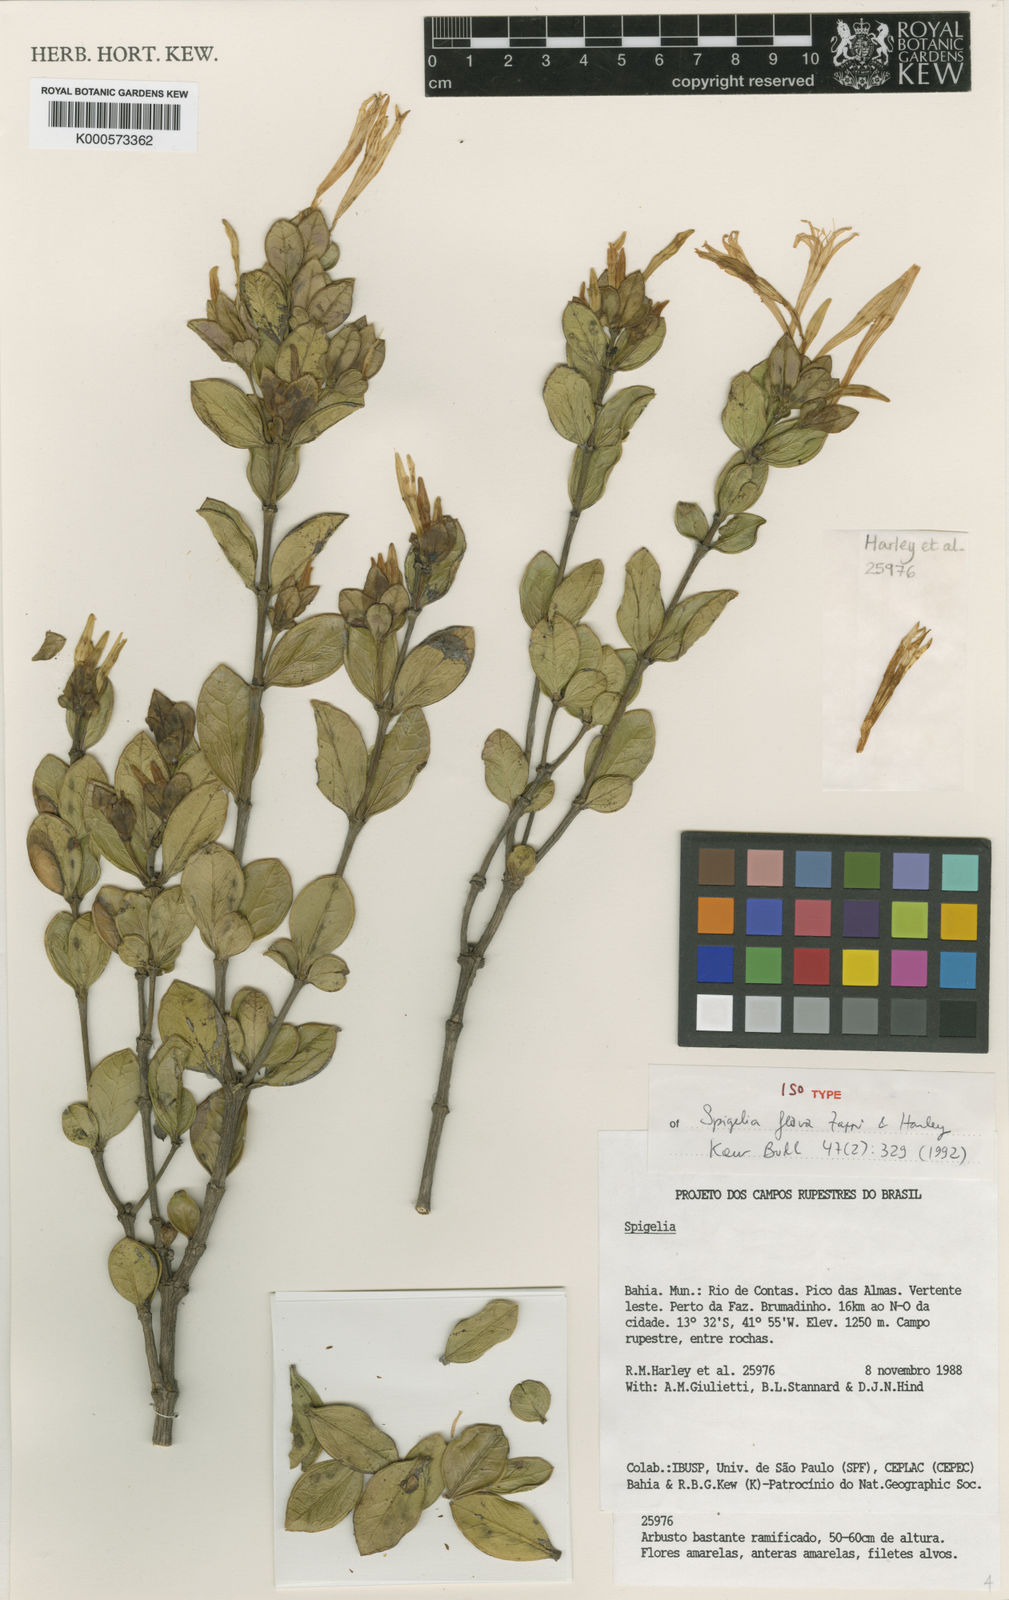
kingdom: Plantae
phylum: Tracheophyta
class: Magnoliopsida
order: Gentianales
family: Loganiaceae
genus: Spigelia
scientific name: Spigelia flava
